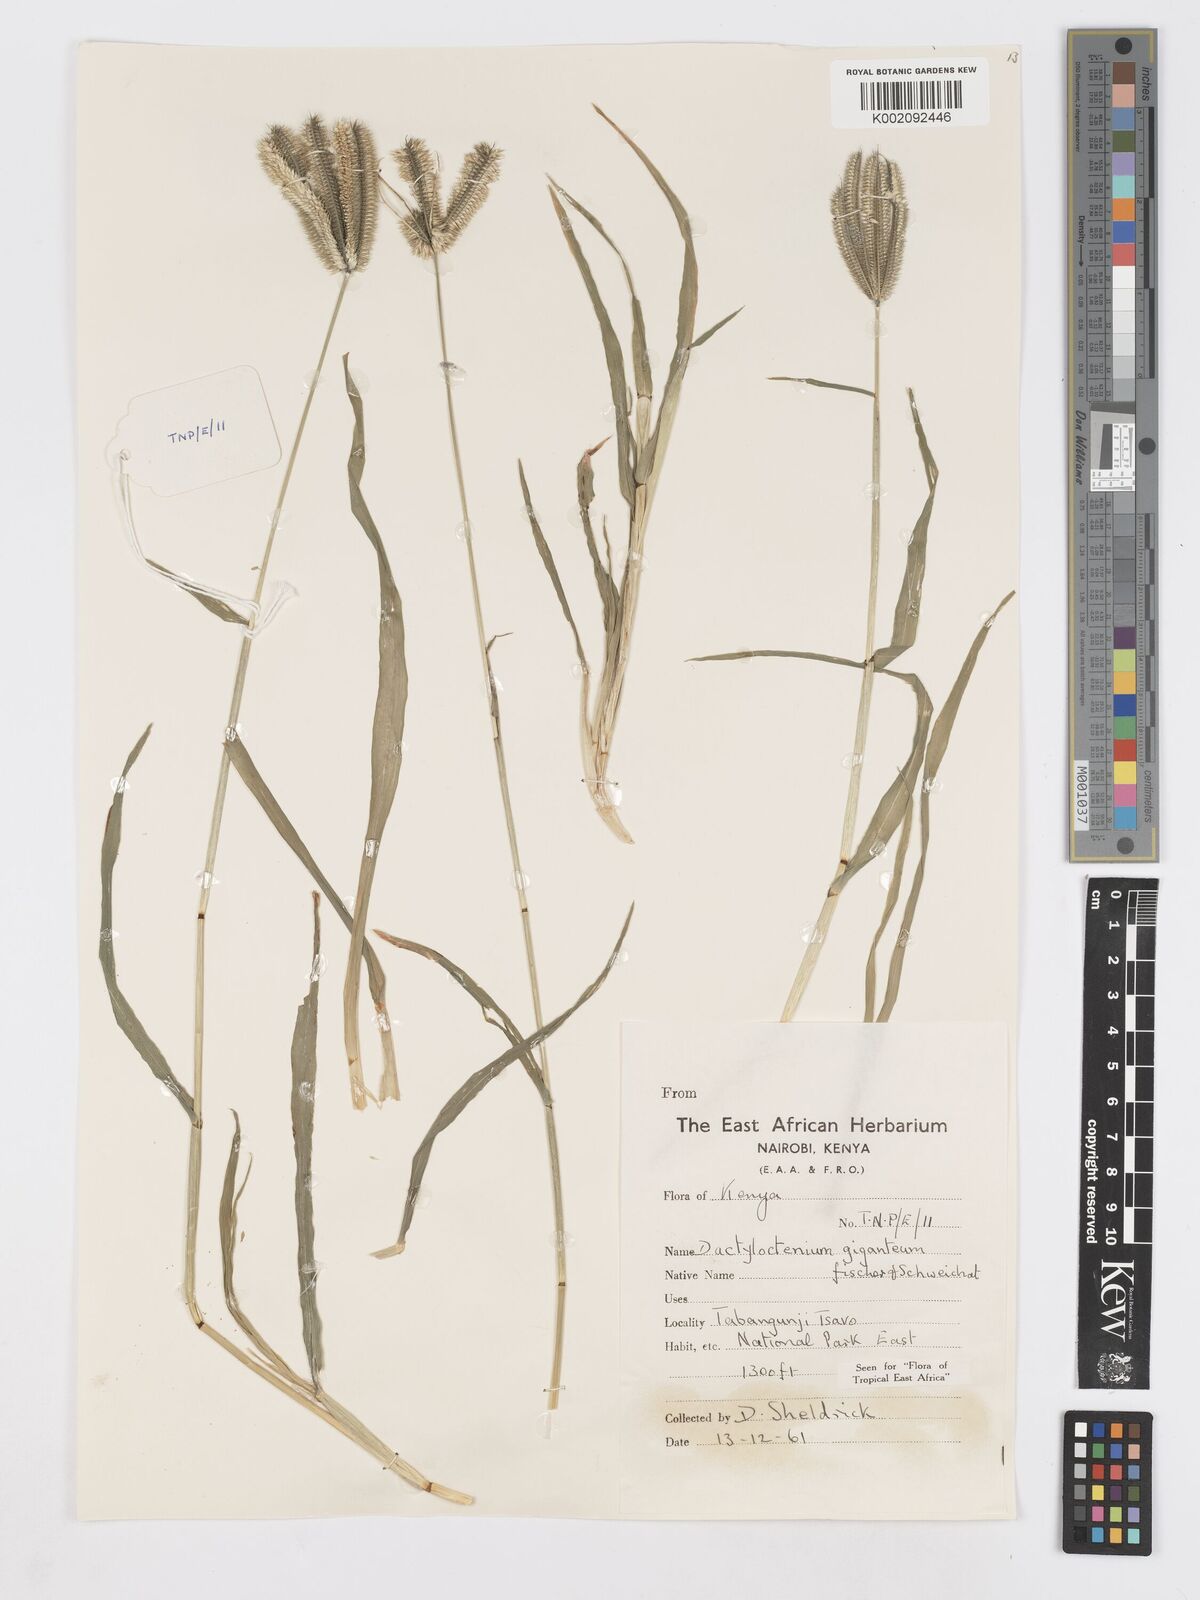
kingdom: Plantae
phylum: Tracheophyta
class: Liliopsida
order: Poales
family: Poaceae
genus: Dactyloctenium
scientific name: Dactyloctenium giganteum
